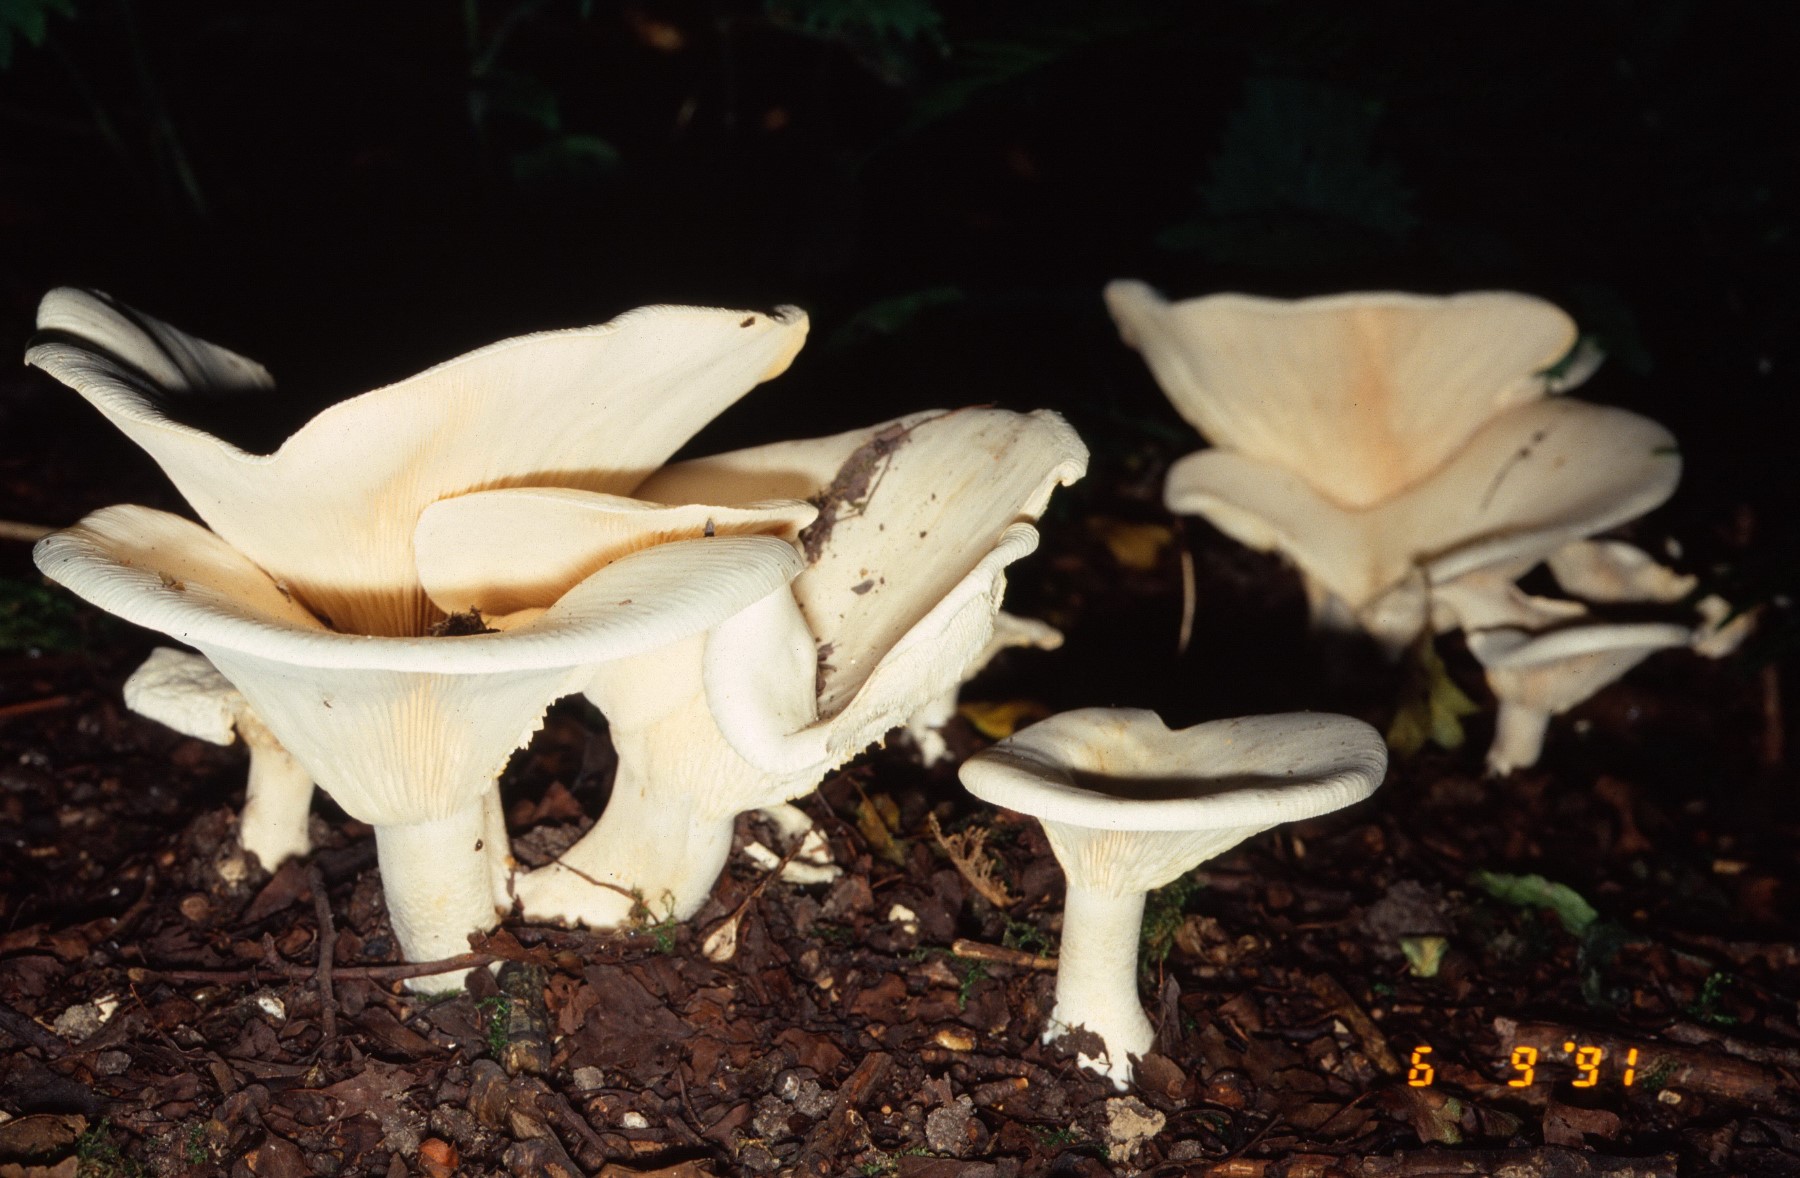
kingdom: Fungi
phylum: Basidiomycota
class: Agaricomycetes
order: Agaricales
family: Tricholomataceae
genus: Aspropaxillus
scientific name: Aspropaxillus giganteus
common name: kæmpe-tragtridderhat
